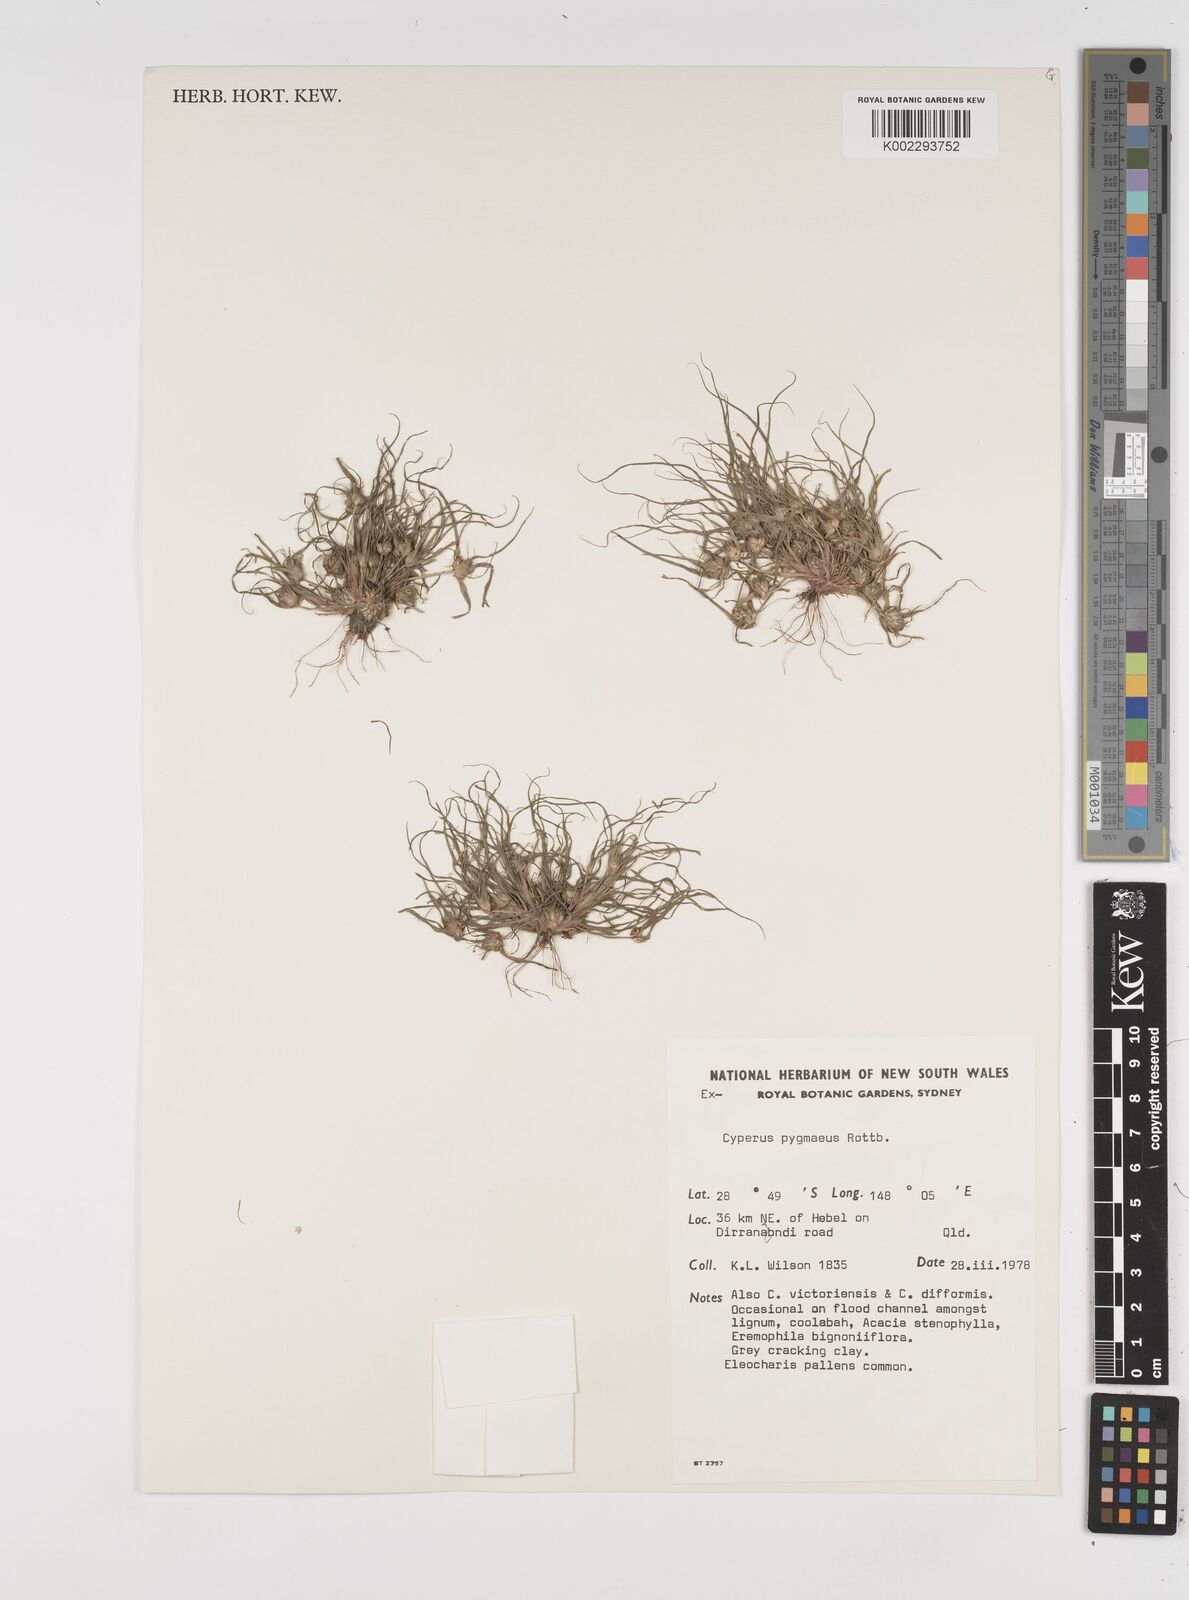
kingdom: Plantae
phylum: Tracheophyta
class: Liliopsida
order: Poales
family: Cyperaceae
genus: Cyperus
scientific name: Cyperus michelianus
